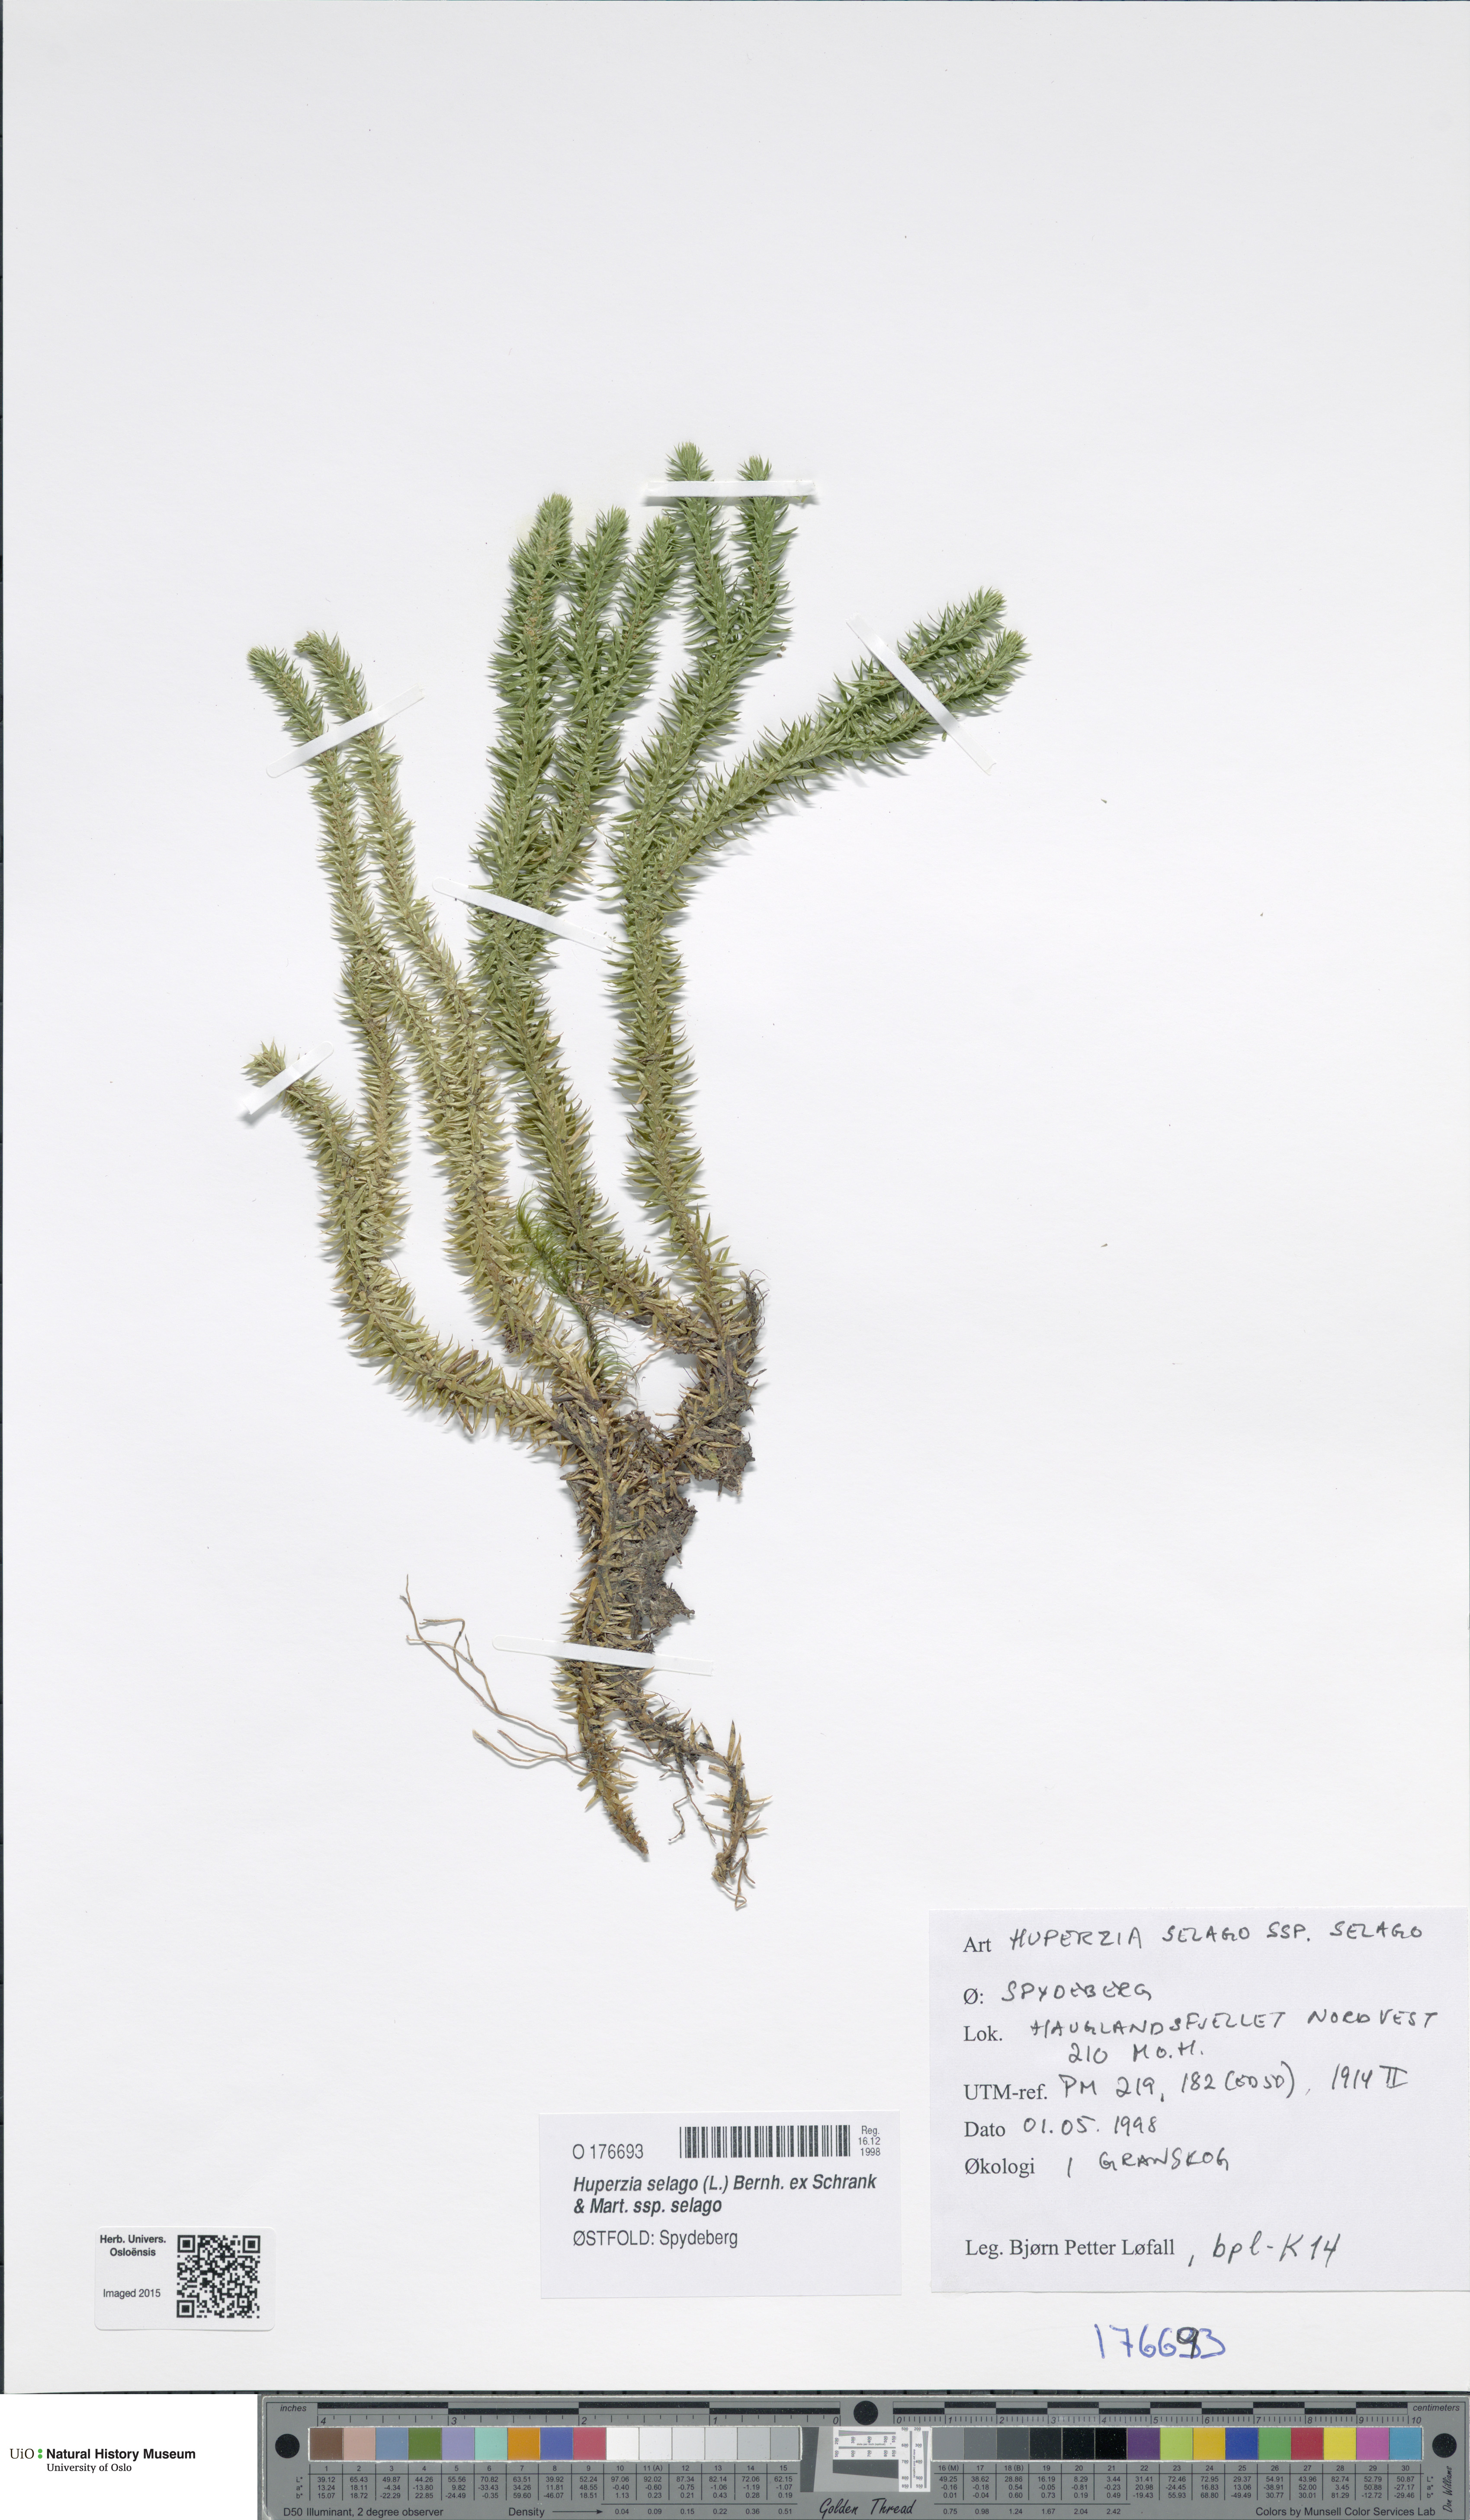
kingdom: Plantae
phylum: Tracheophyta
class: Lycopodiopsida
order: Lycopodiales
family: Lycopodiaceae
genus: Huperzia
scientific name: Huperzia selago
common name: Northern firmoss
